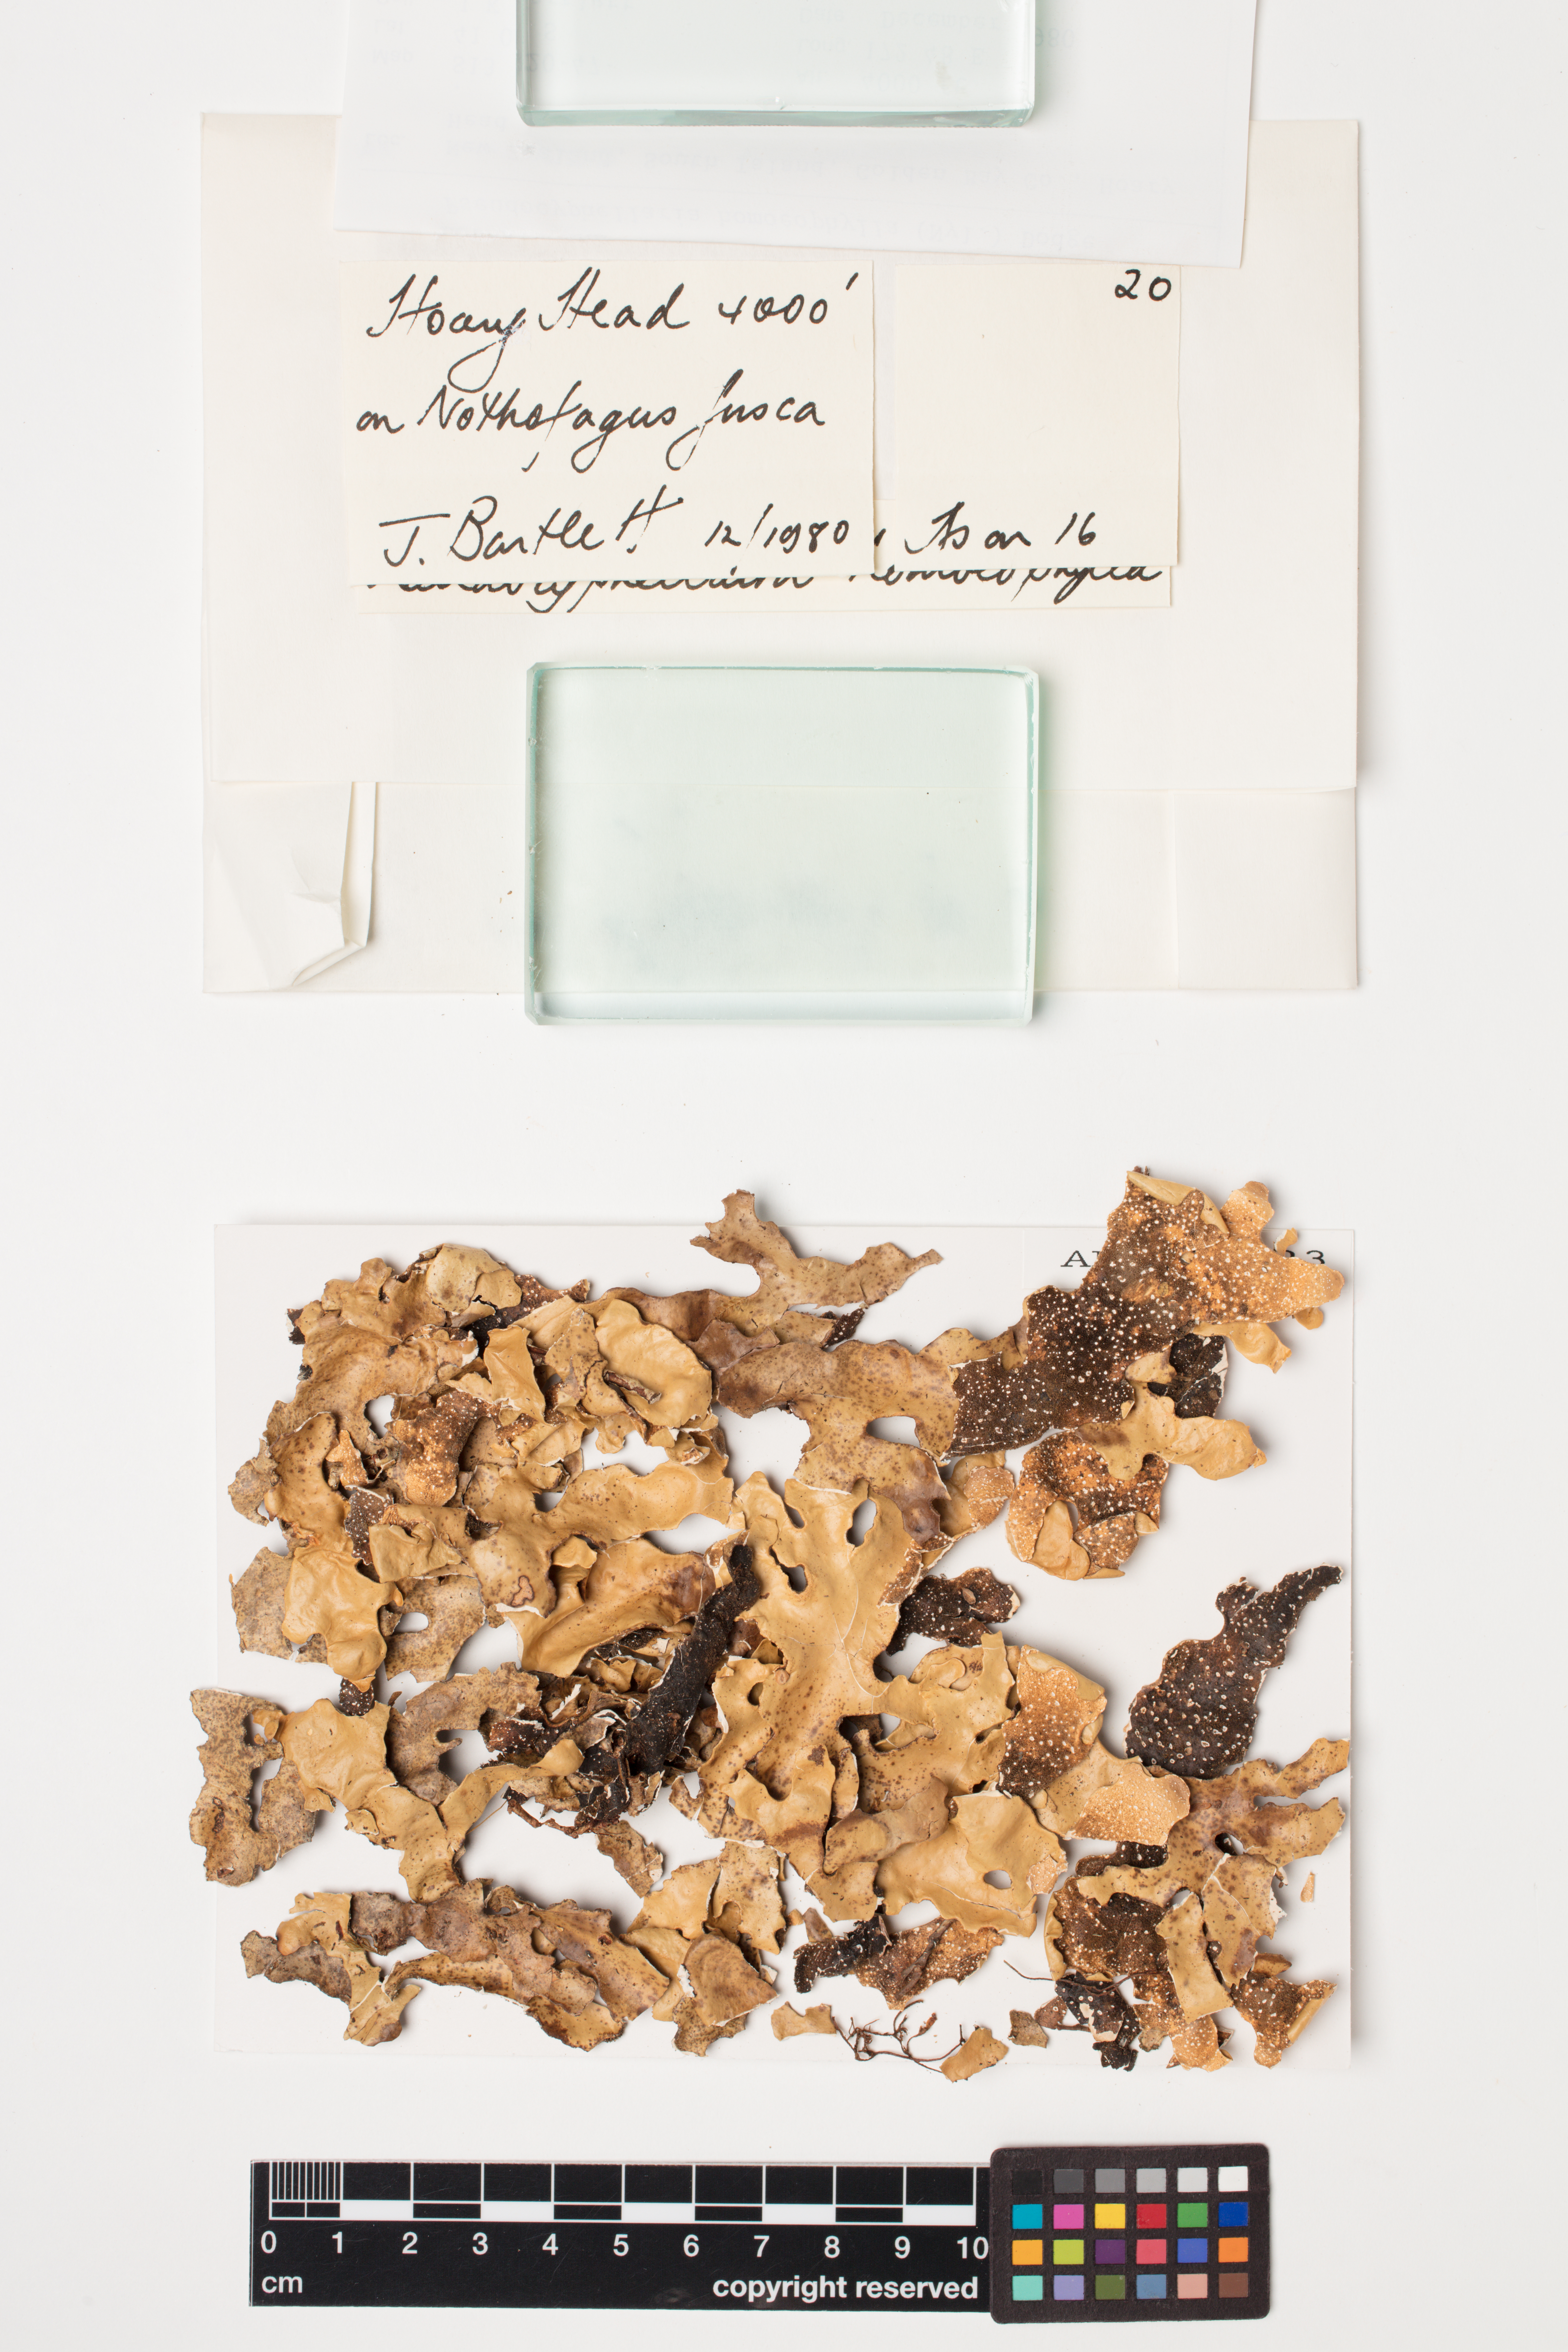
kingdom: Fungi
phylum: Ascomycota
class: Lecanoromycetes
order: Peltigerales
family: Lobariaceae
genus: Pseudocyphellaria
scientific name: Pseudocyphellaria homeophylla
